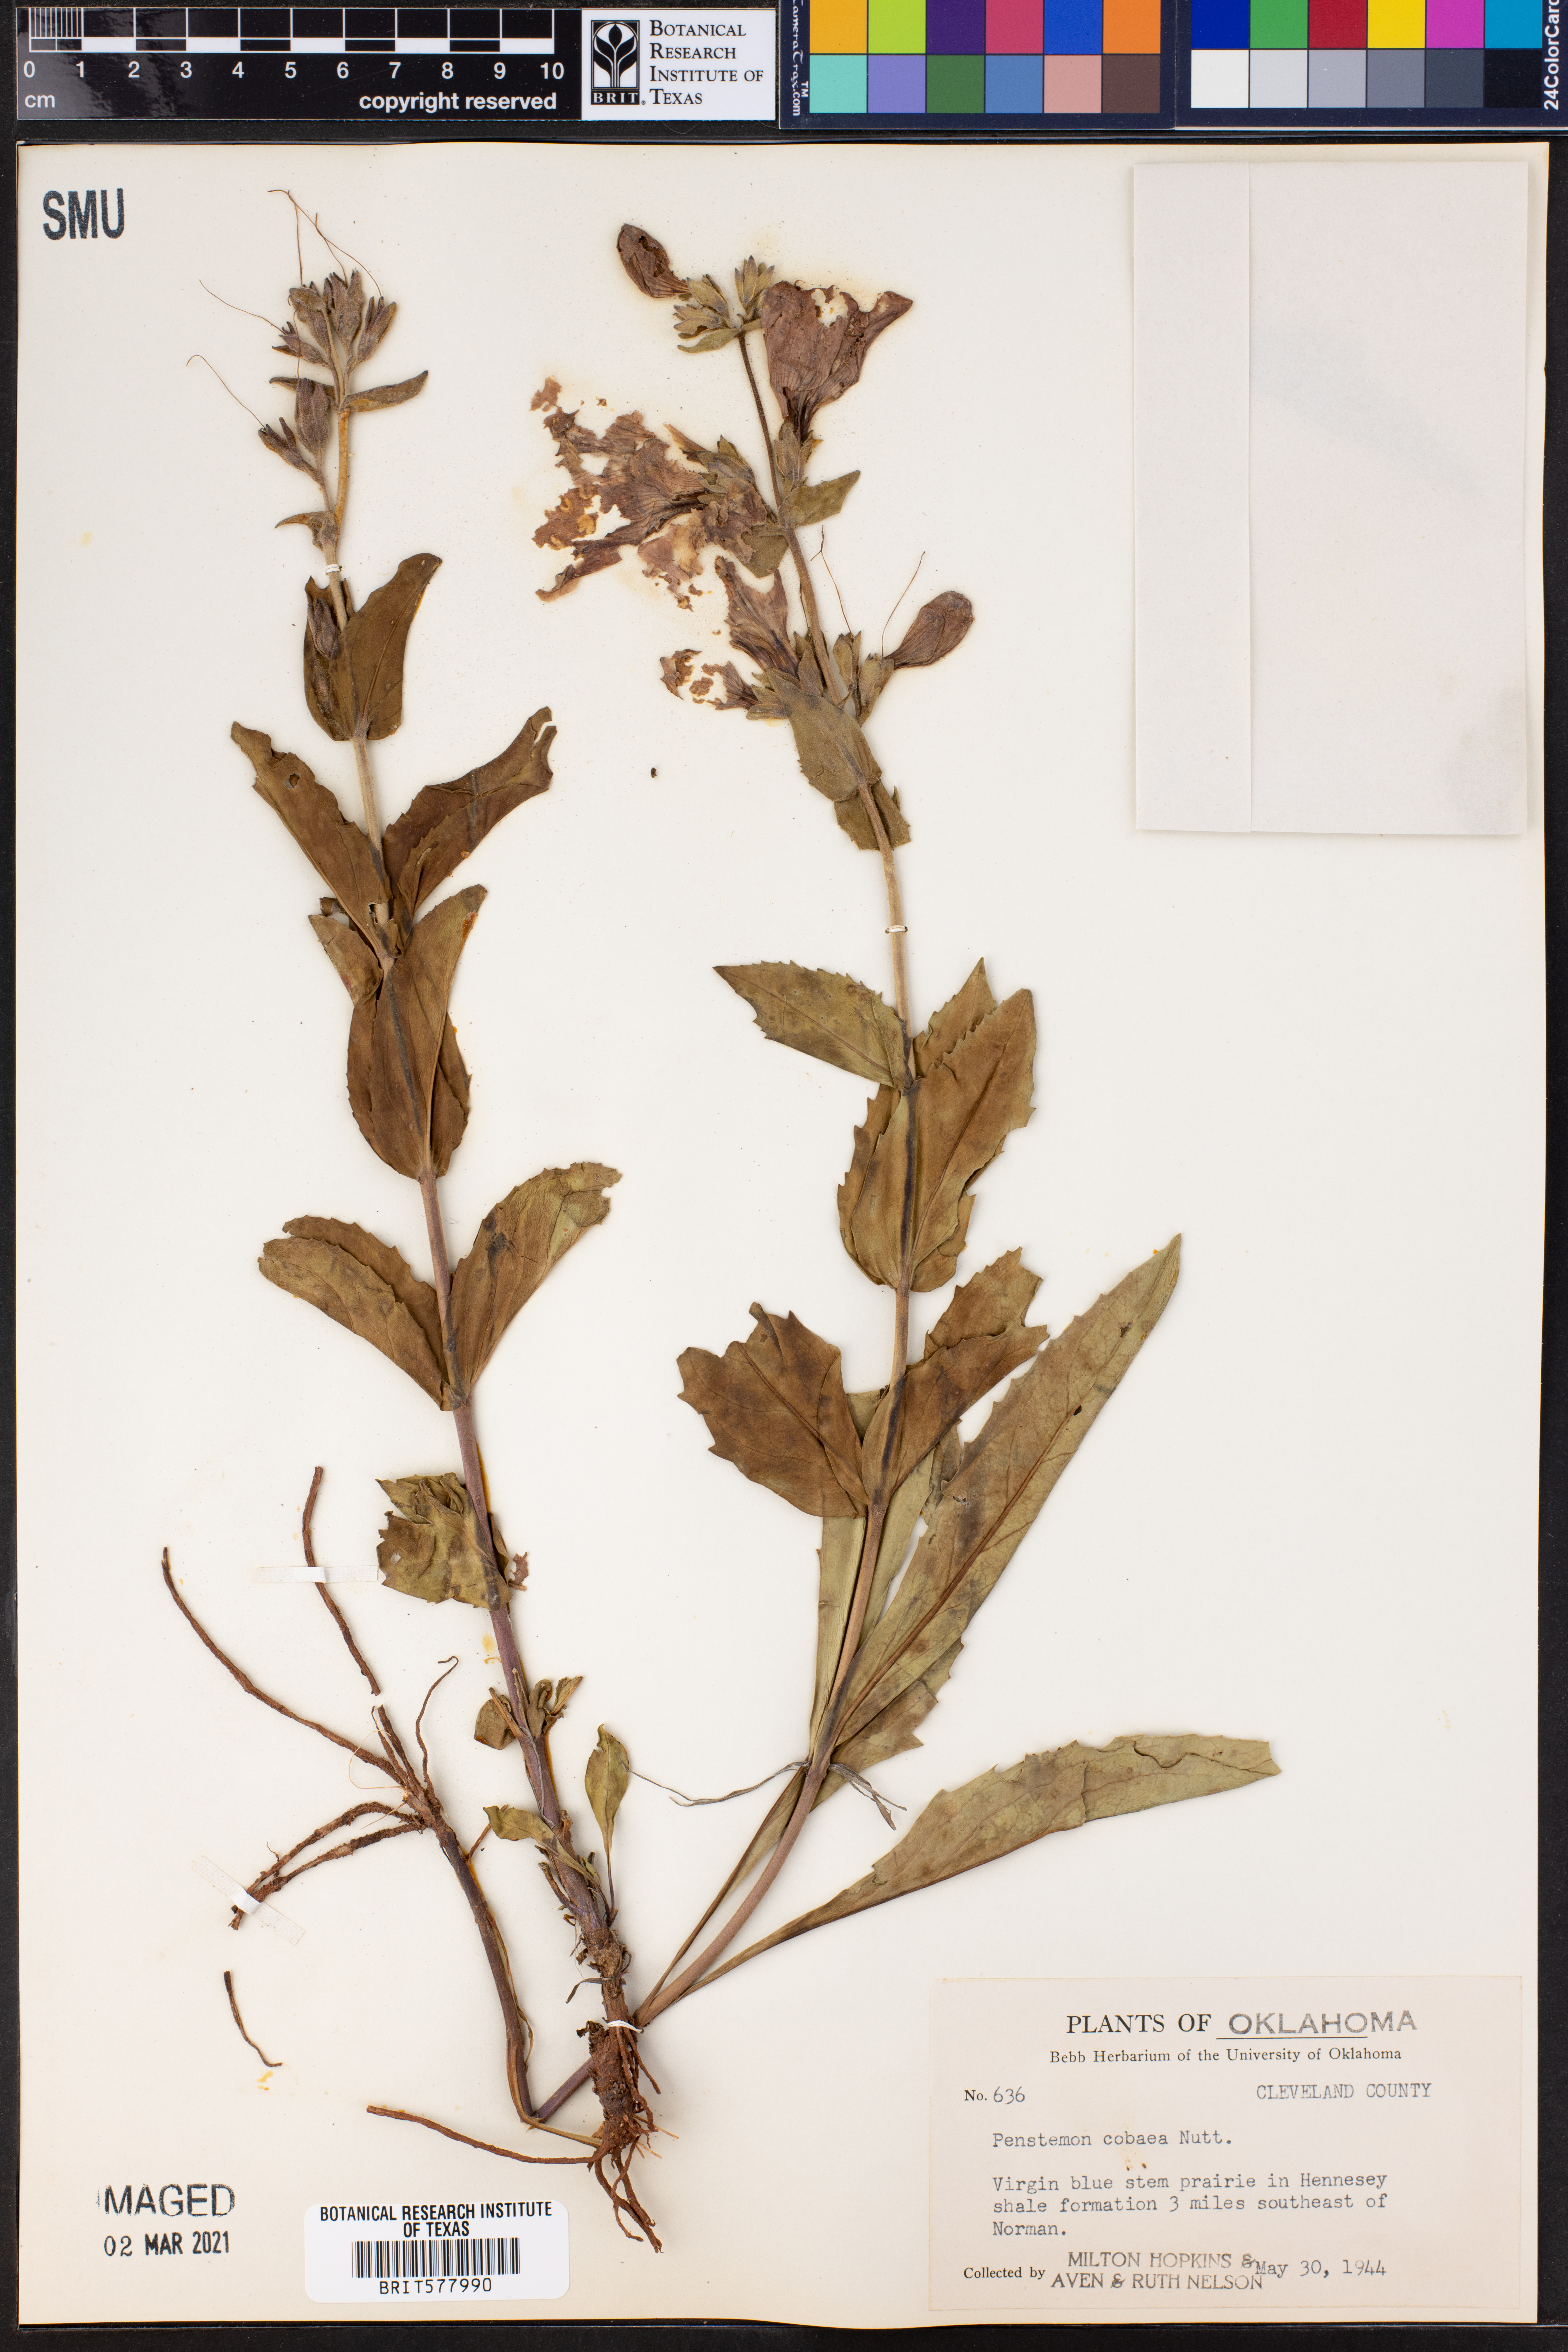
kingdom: Plantae
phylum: Tracheophyta
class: Magnoliopsida
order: Lamiales
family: Plantaginaceae
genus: Penstemon
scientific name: Penstemon cobaea
